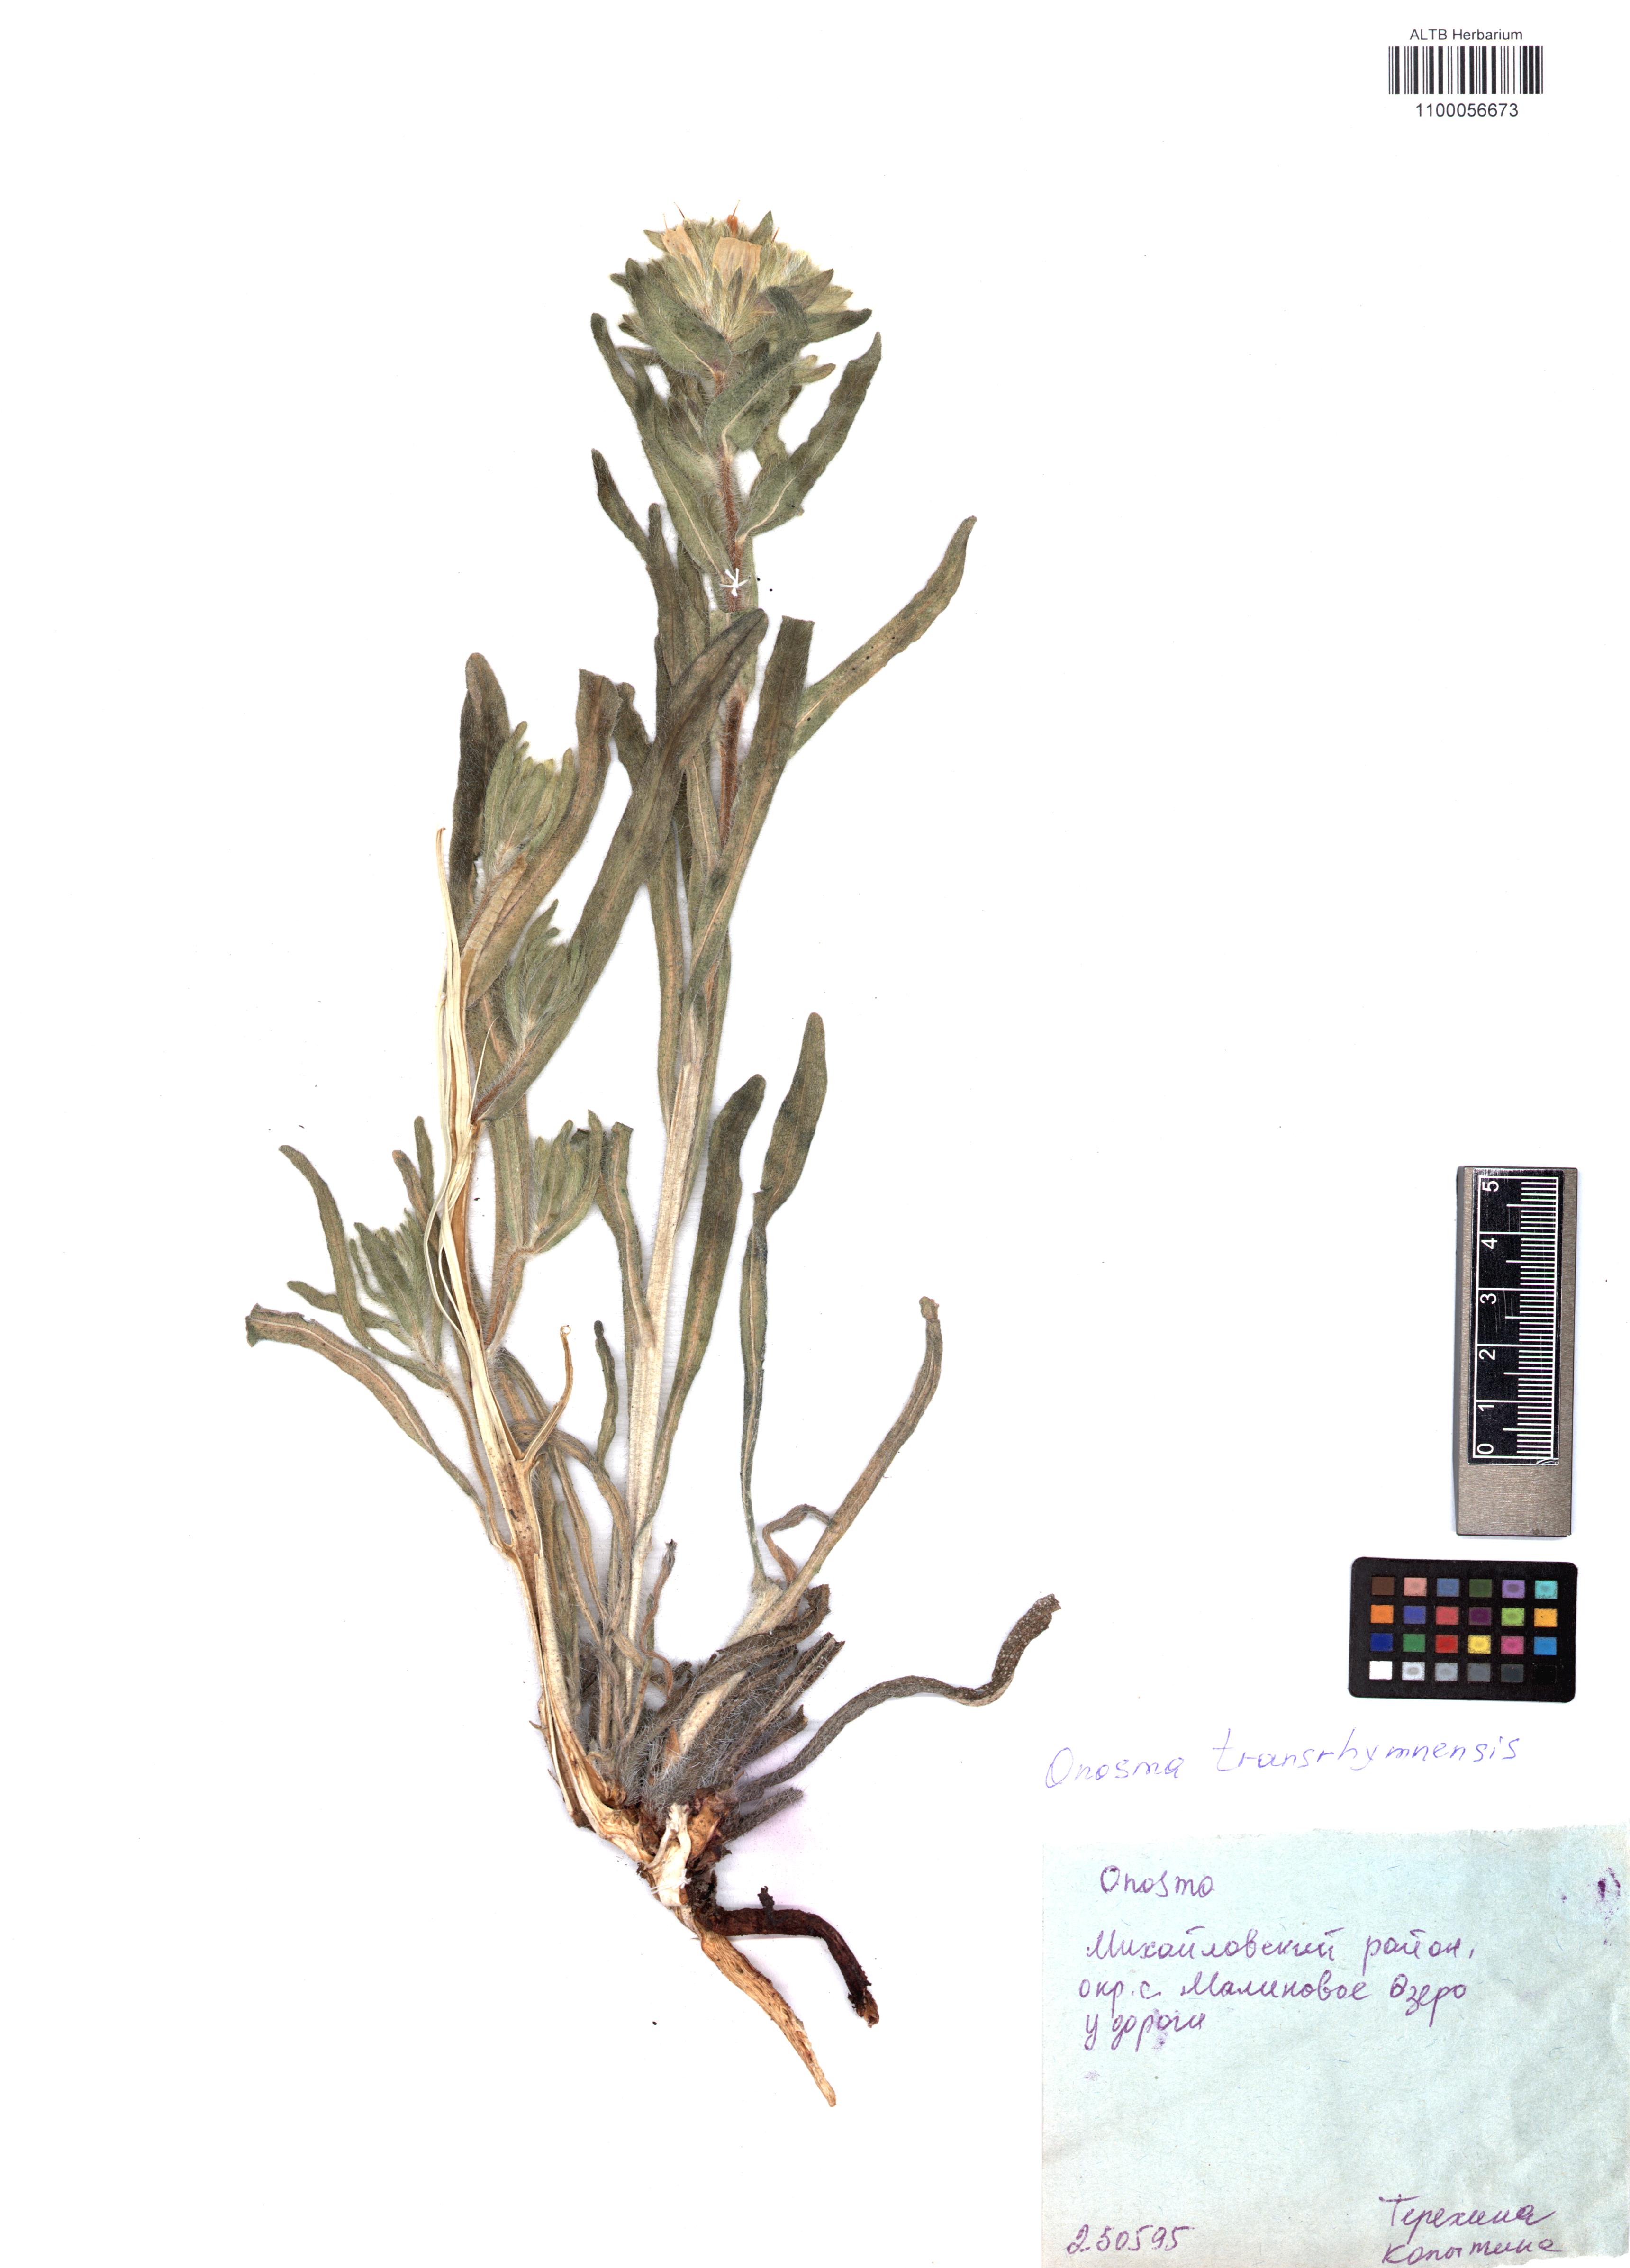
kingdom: Plantae
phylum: Tracheophyta
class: Magnoliopsida
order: Boraginales
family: Boraginaceae
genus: Onosma
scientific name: Onosma transrhymnensis
